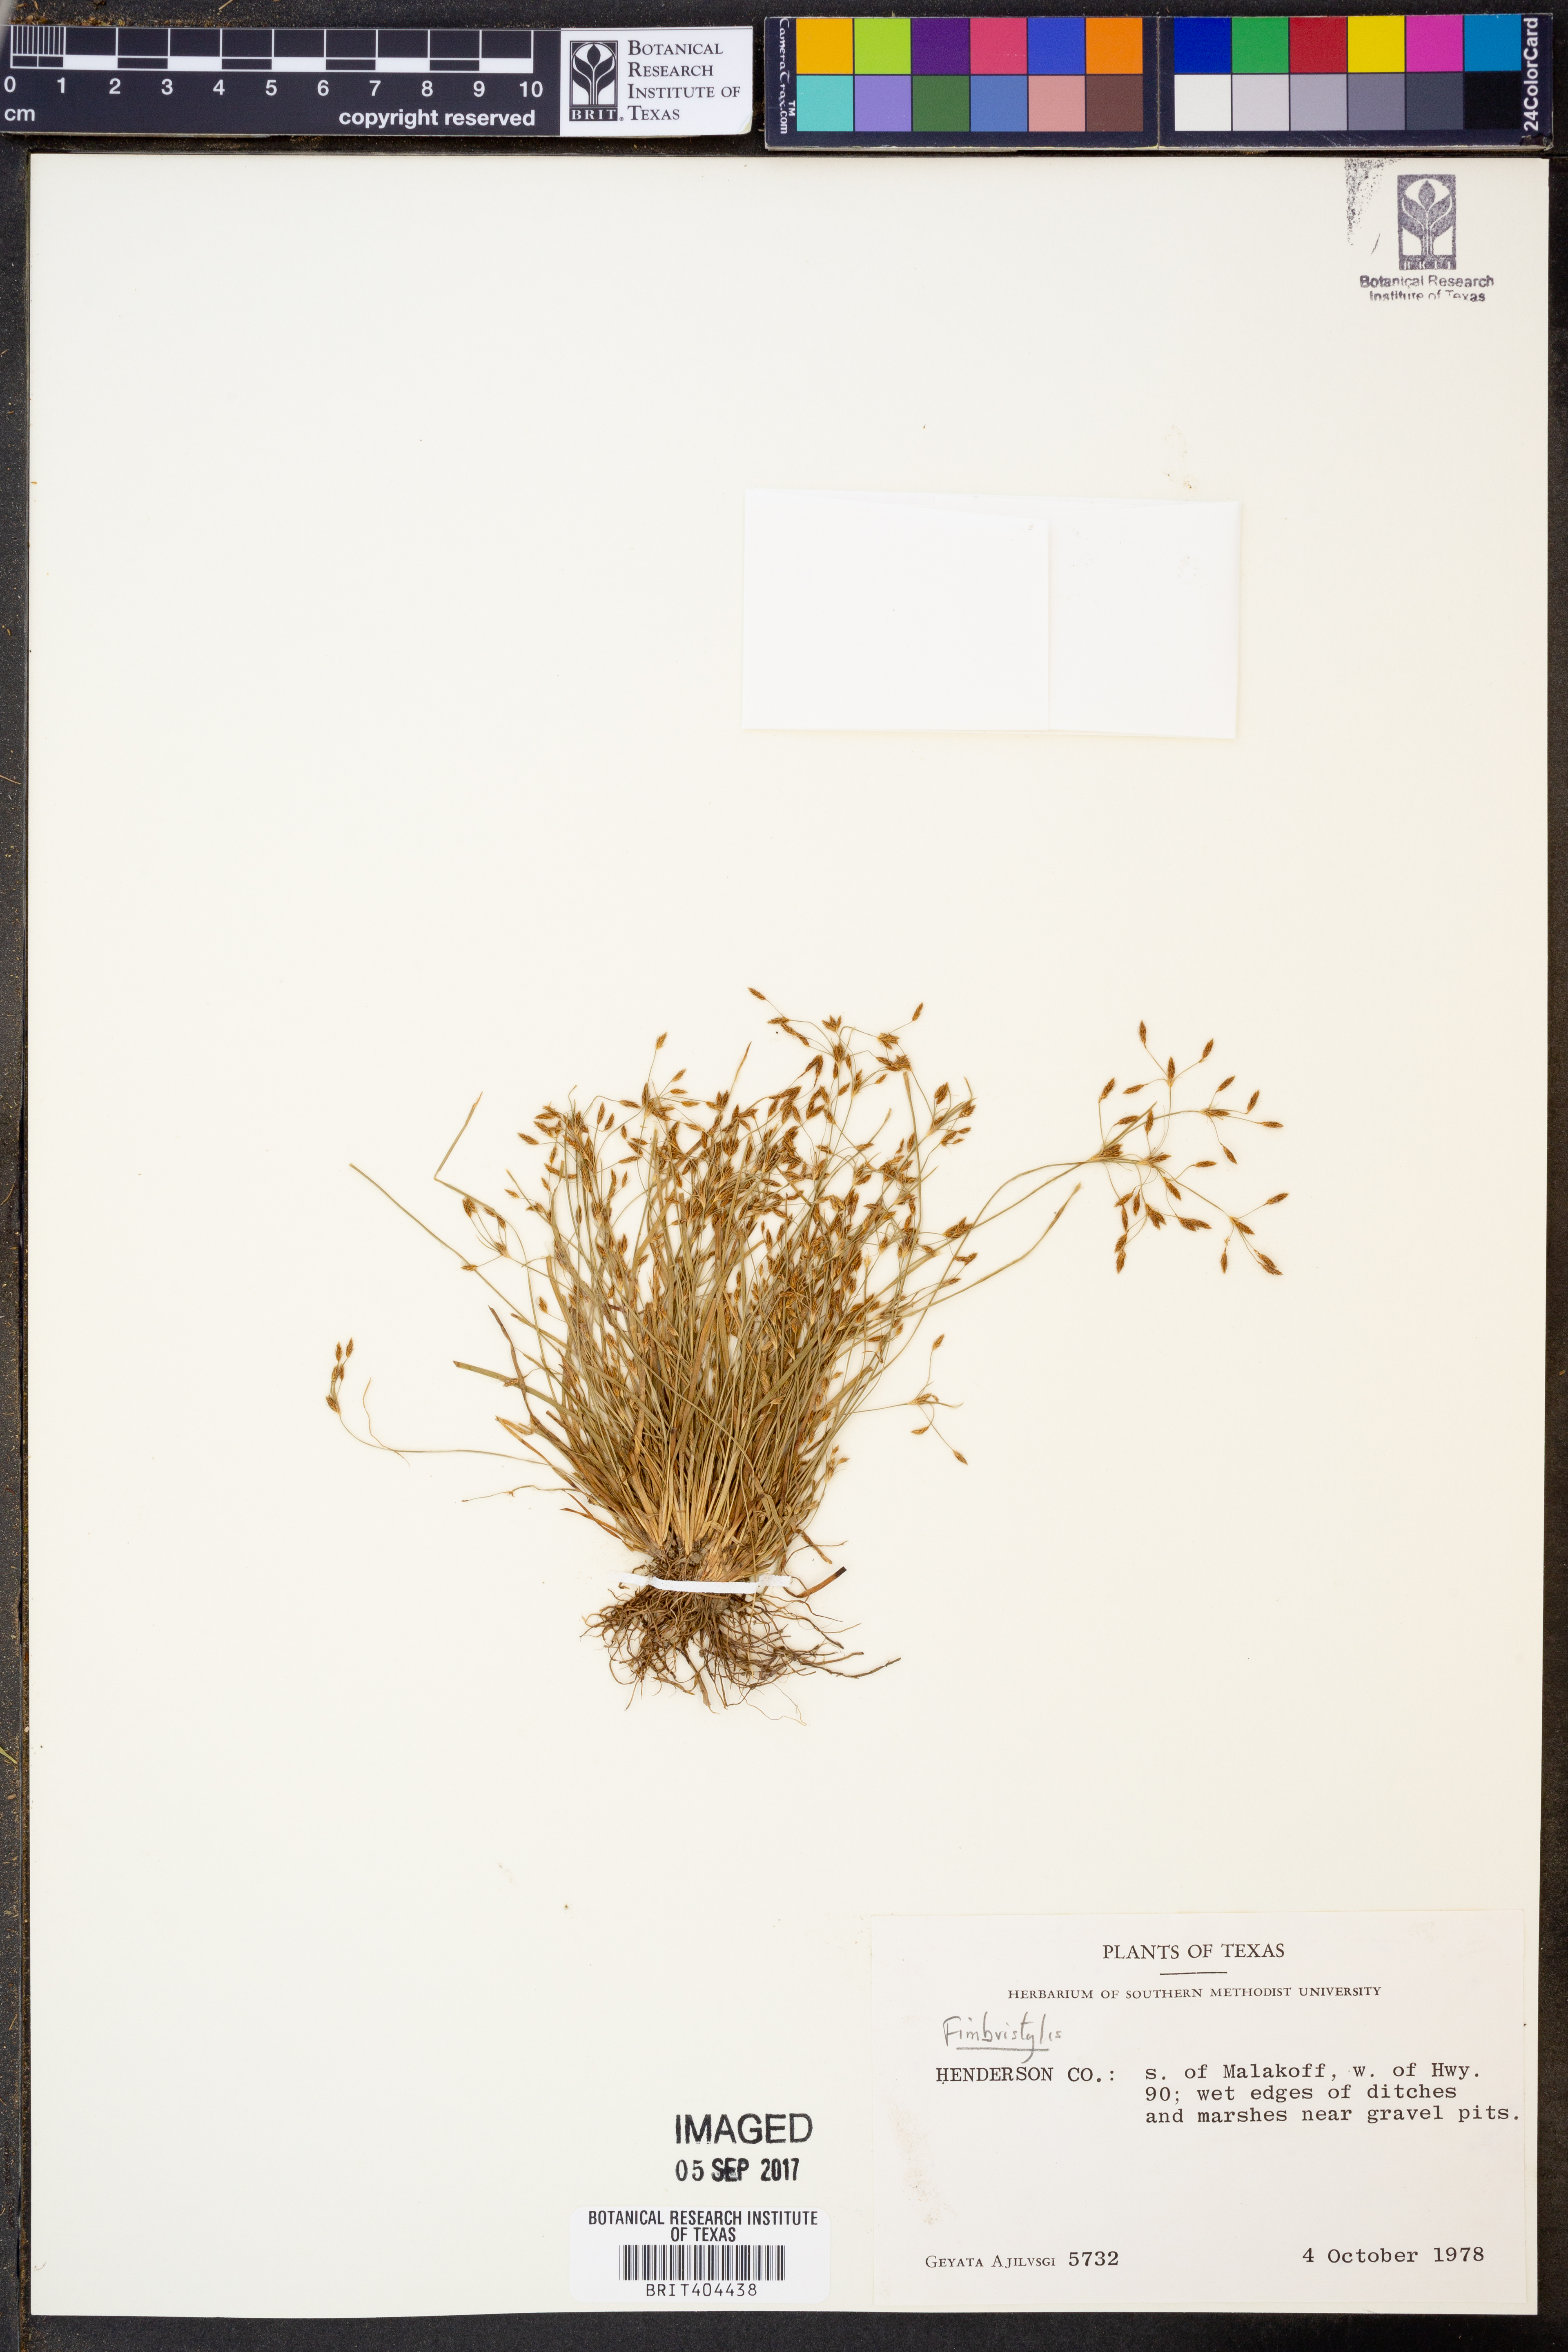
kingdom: Plantae
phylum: Tracheophyta
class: Liliopsida
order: Poales
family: Cyperaceae
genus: Fimbristylis
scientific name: Fimbristylis
